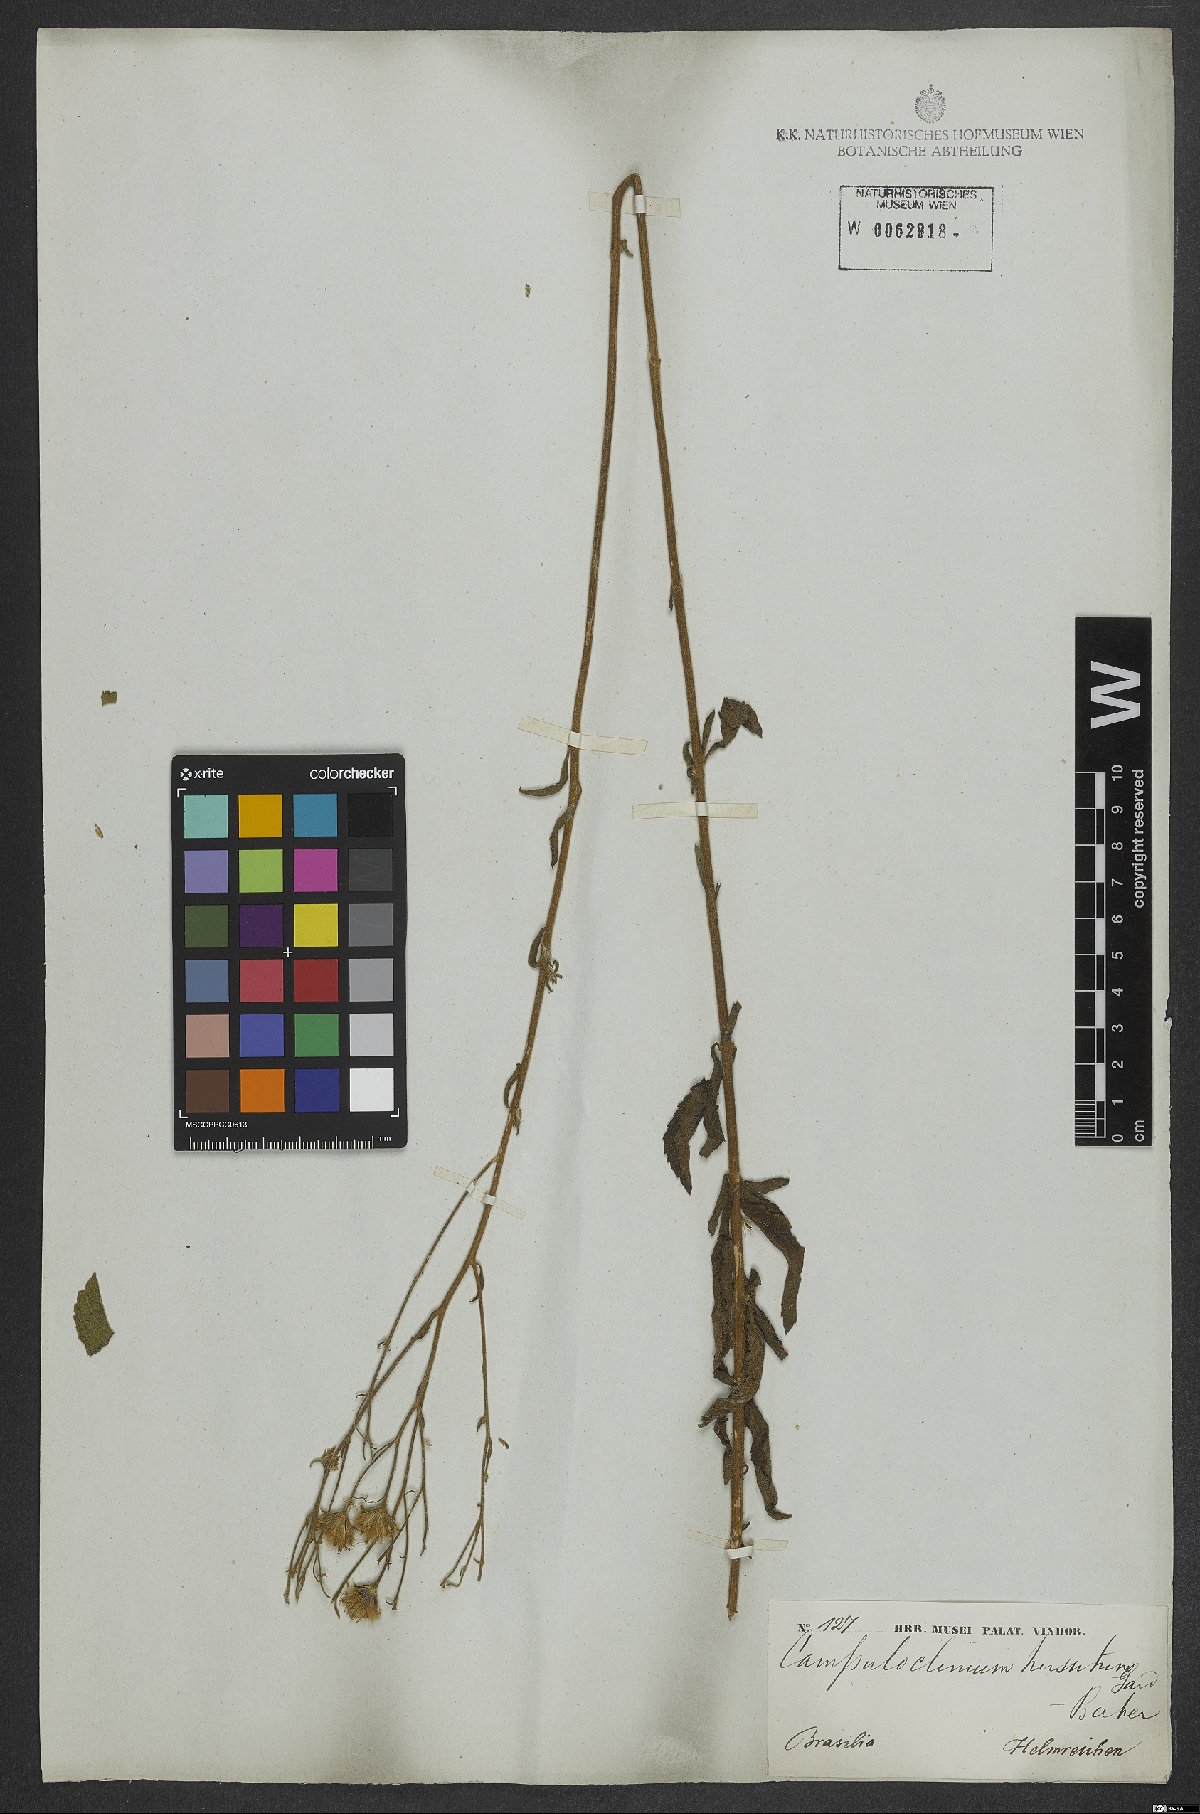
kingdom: Plantae
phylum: Tracheophyta
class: Magnoliopsida
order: Asterales
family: Asteraceae
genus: Campuloclinium
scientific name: Campuloclinium hirsutum
